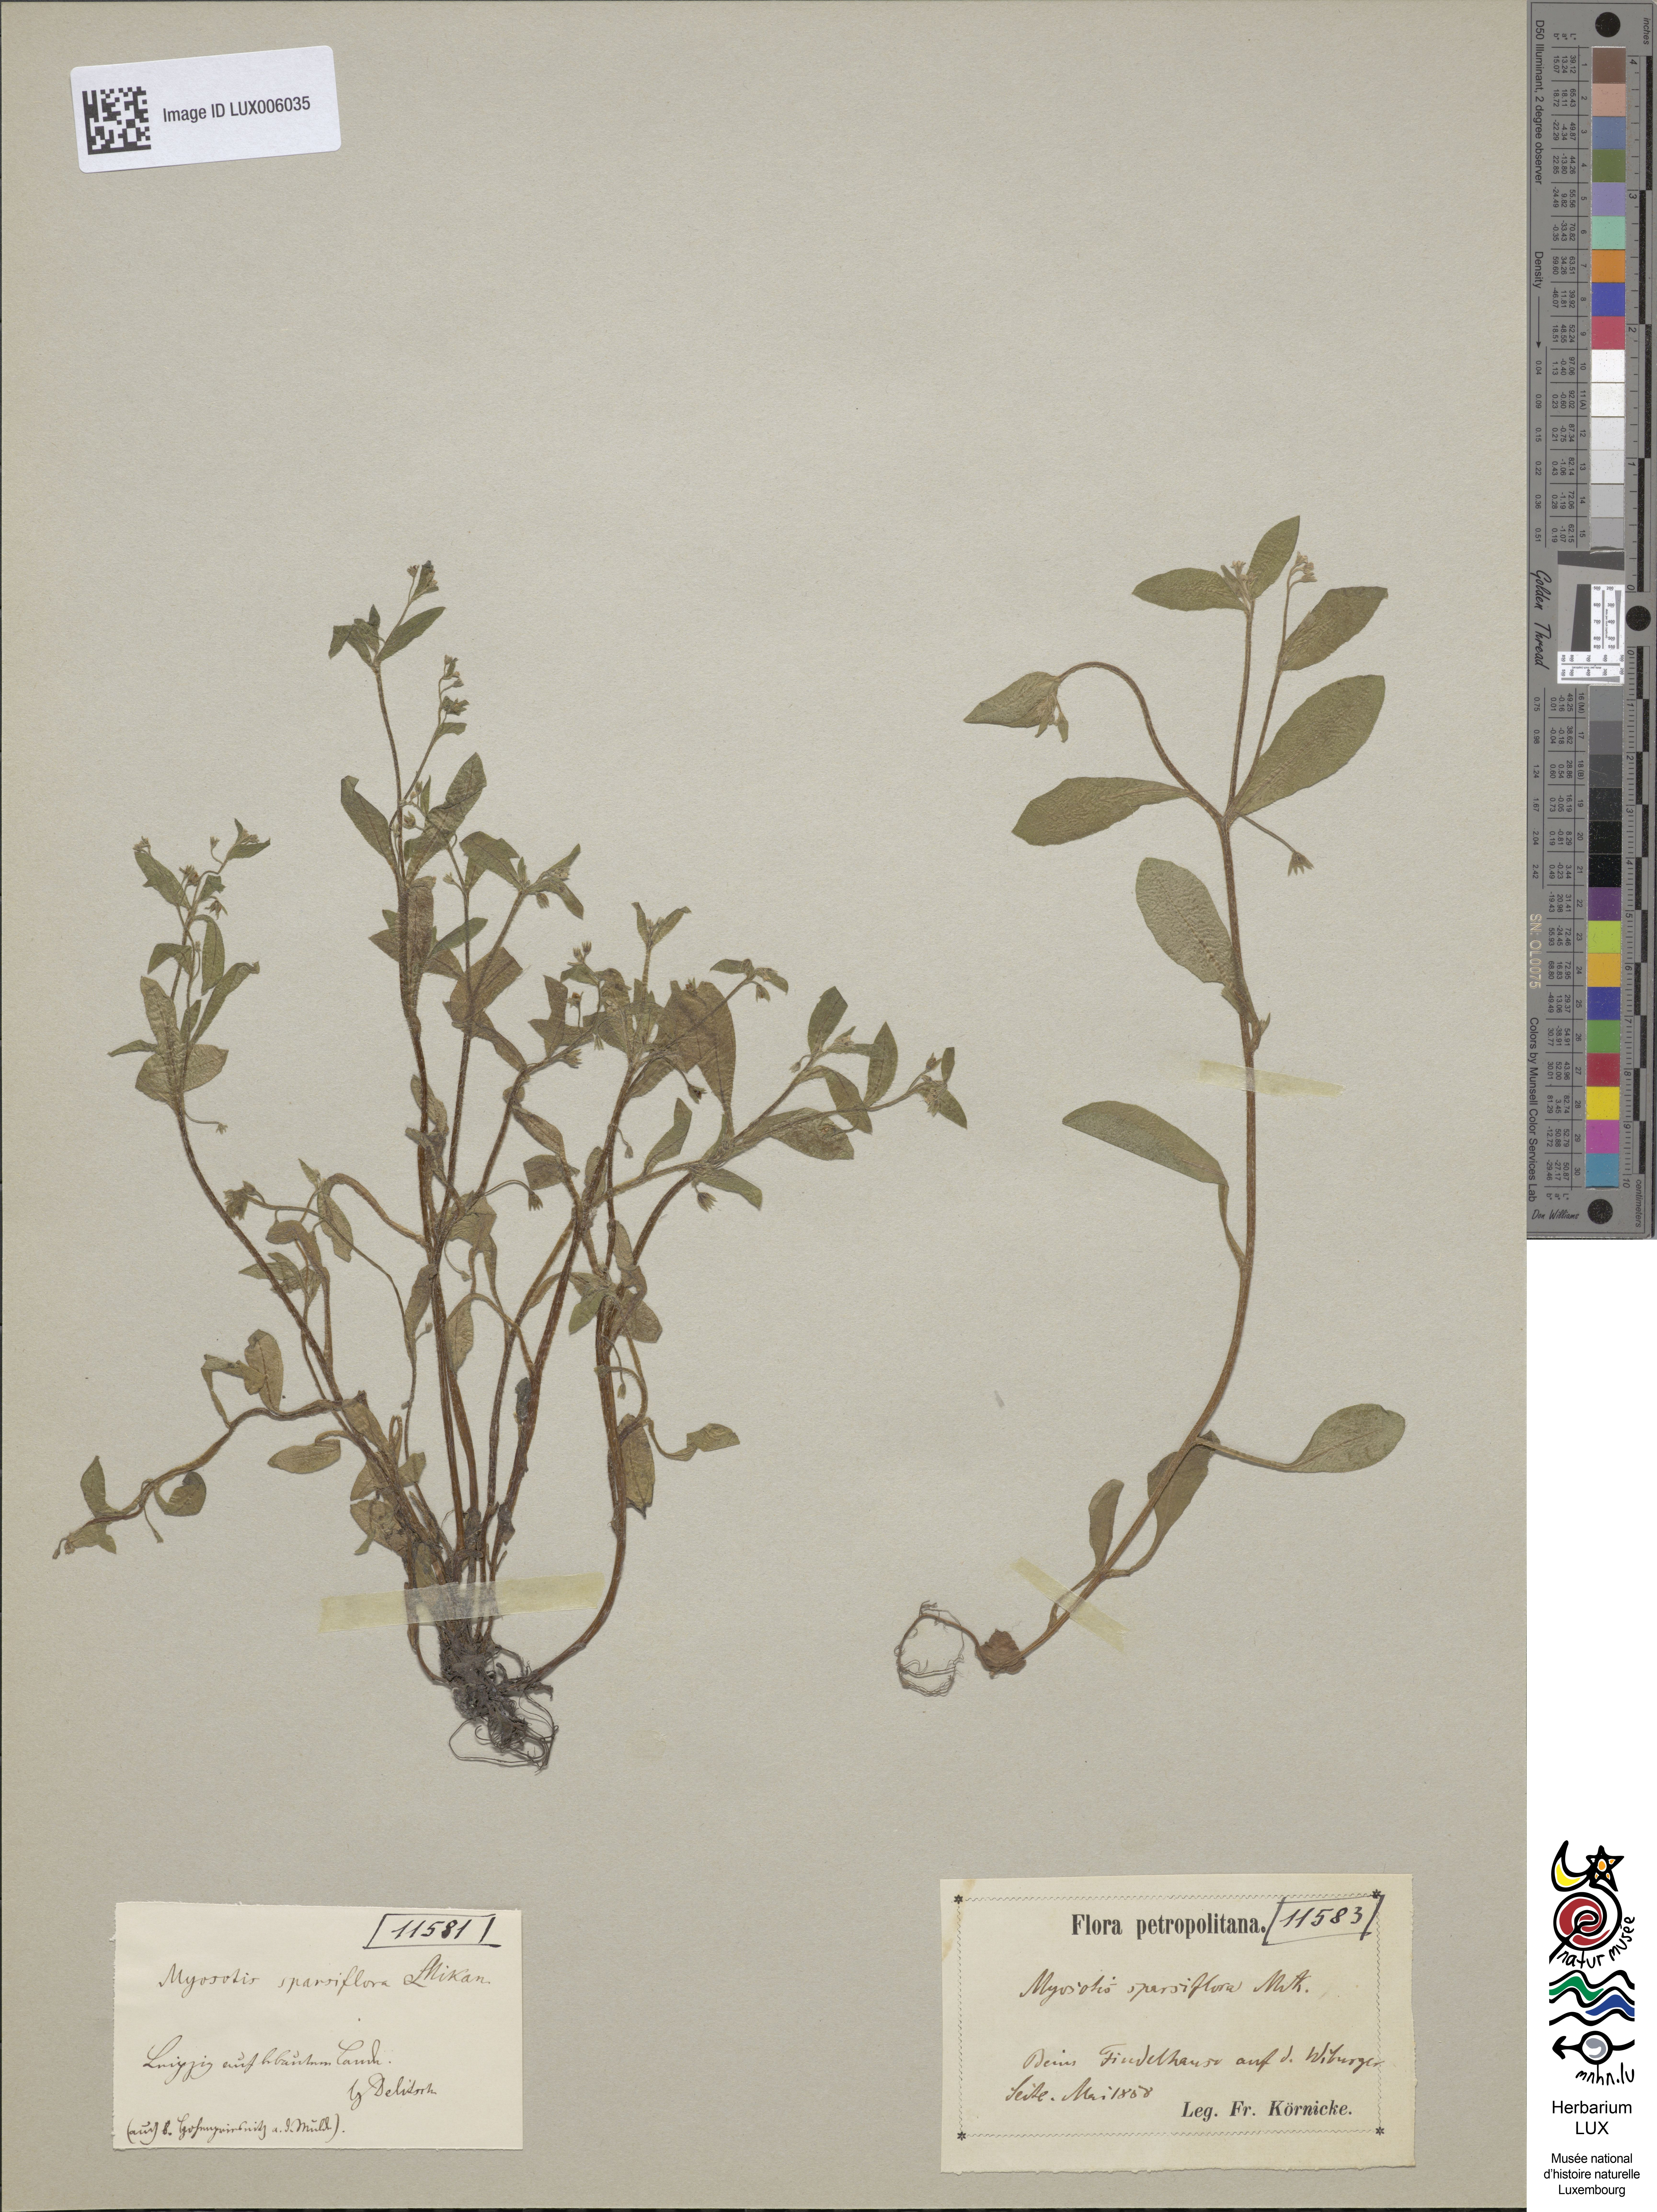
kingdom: Plantae
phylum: Tracheophyta
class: Magnoliopsida
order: Boraginales
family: Boraginaceae
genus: Myosotis
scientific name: Myosotis sparsiflora
